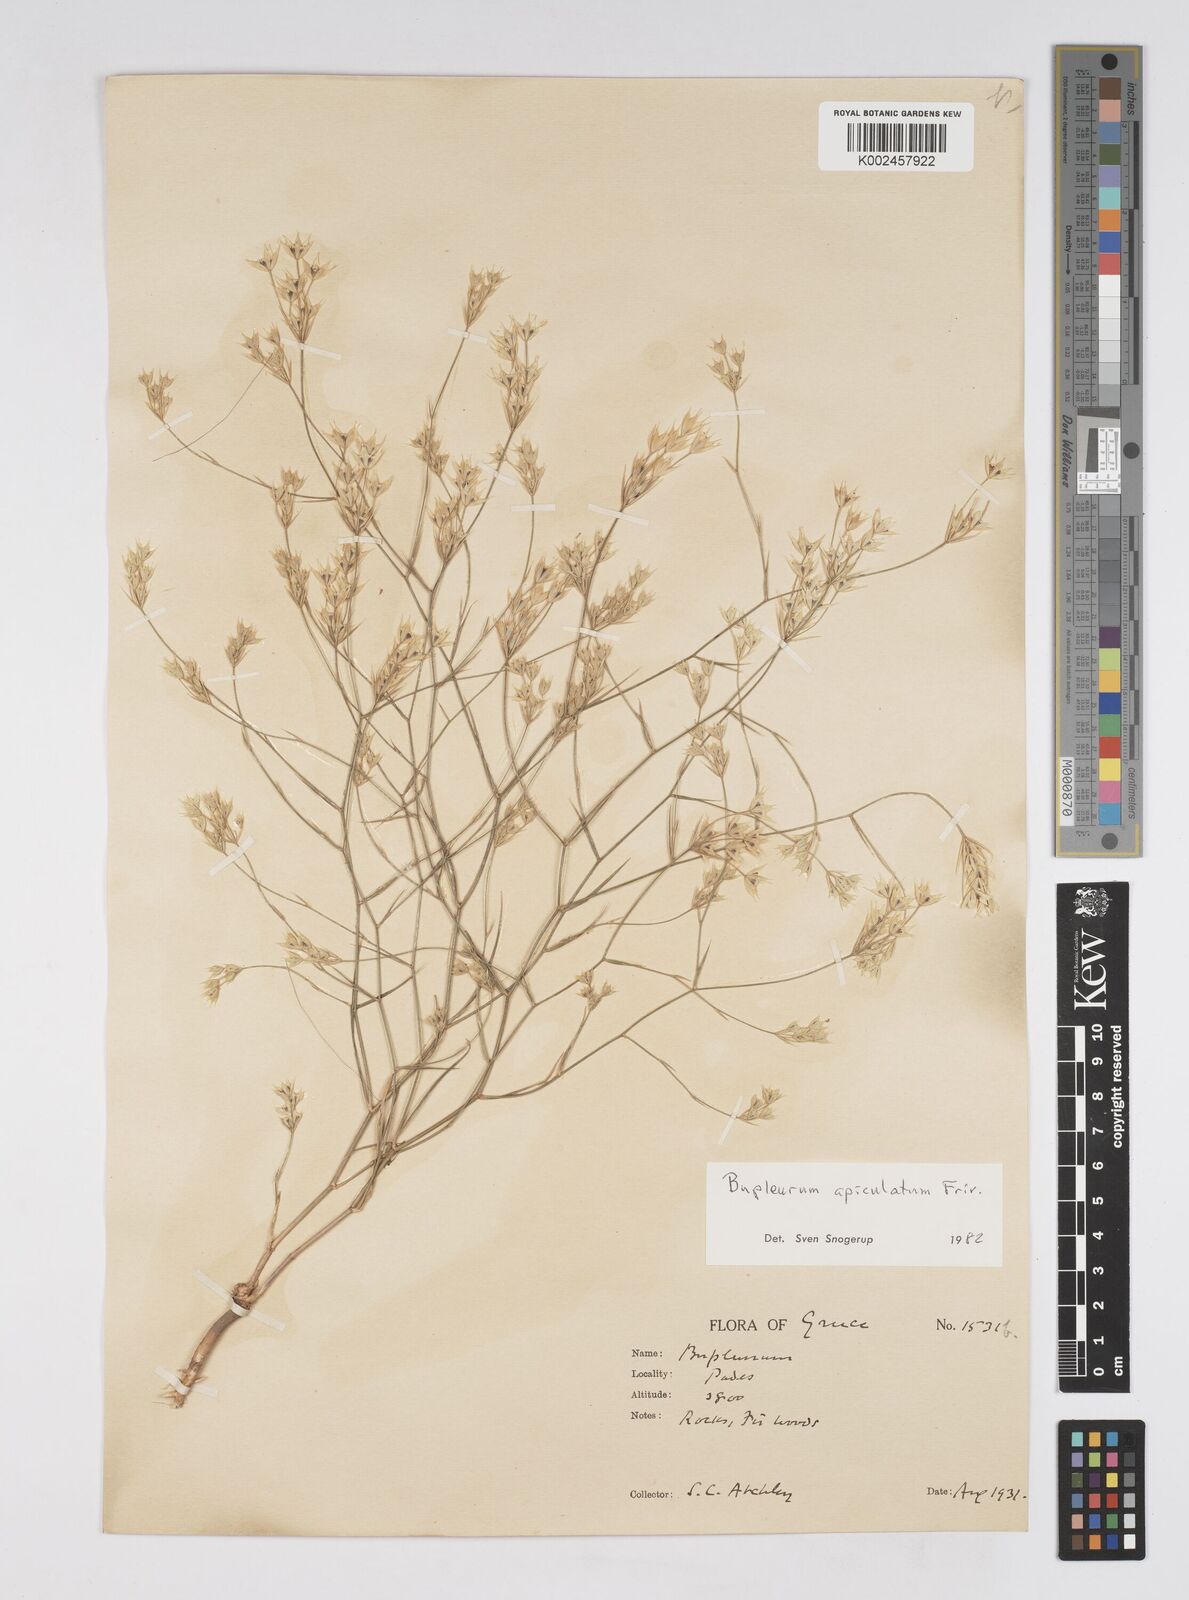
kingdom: Plantae
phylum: Tracheophyta
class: Magnoliopsida
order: Apiales
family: Apiaceae
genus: Bupleurum
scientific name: Bupleurum apiculatum
